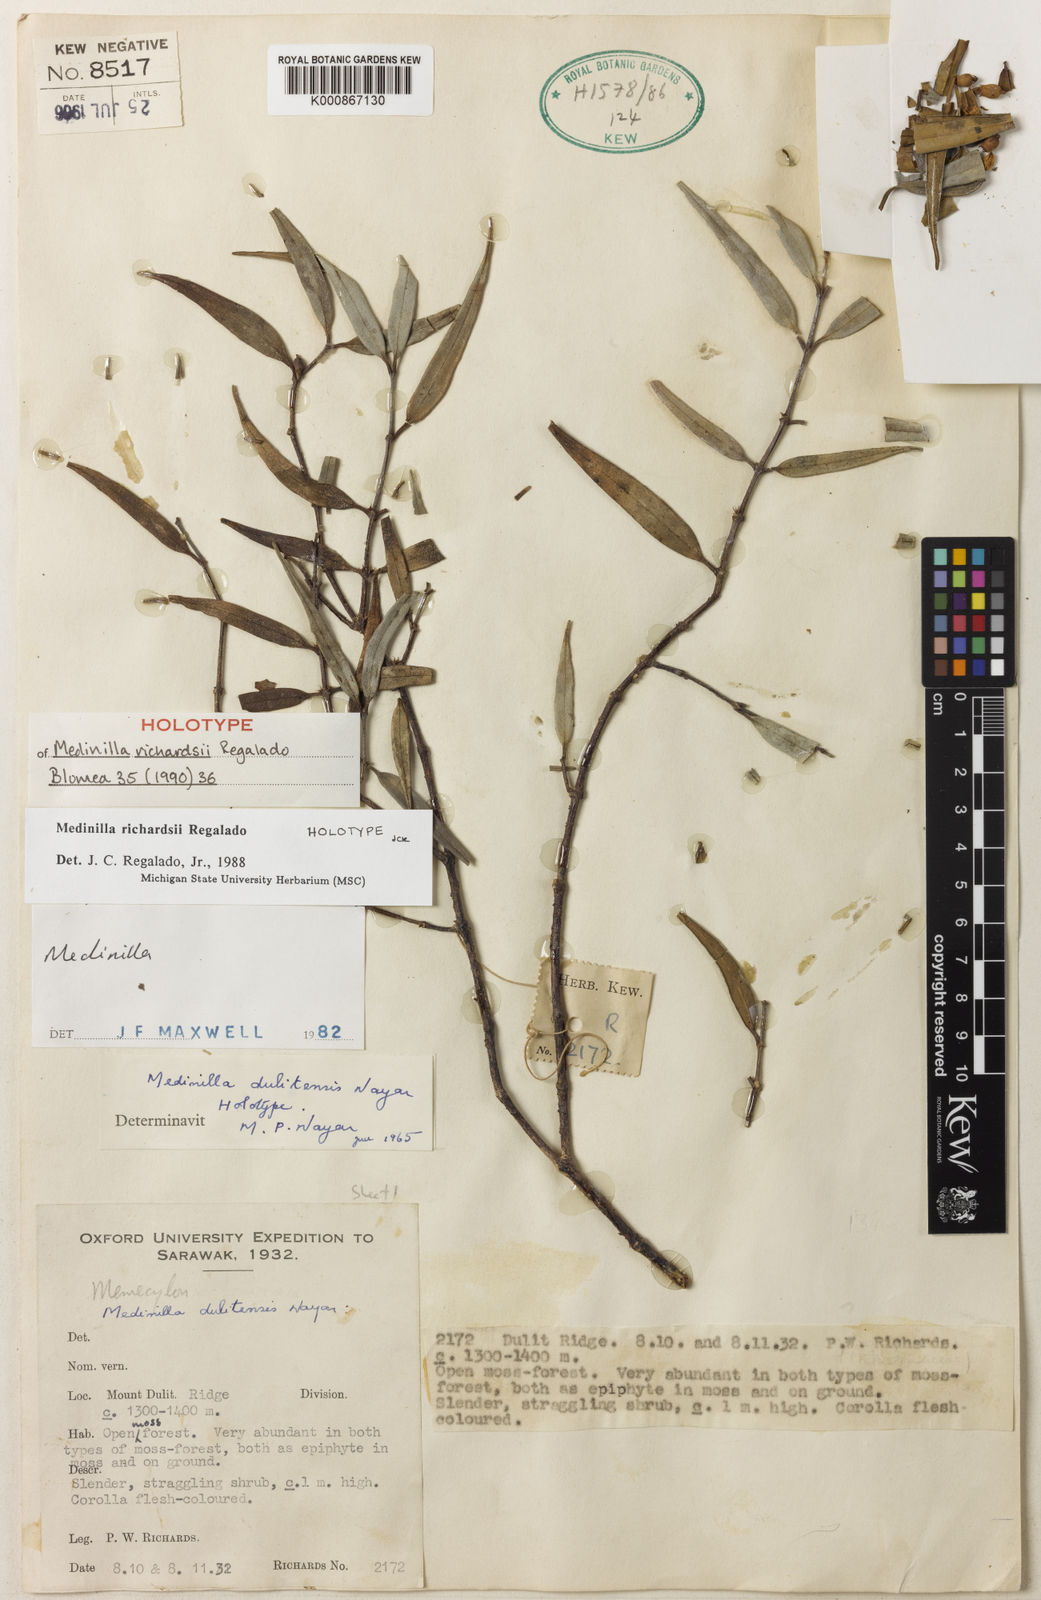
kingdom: Plantae
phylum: Tracheophyta
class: Magnoliopsida
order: Myrtales
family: Melastomataceae
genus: Medinilla
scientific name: Medinilla richardsii
